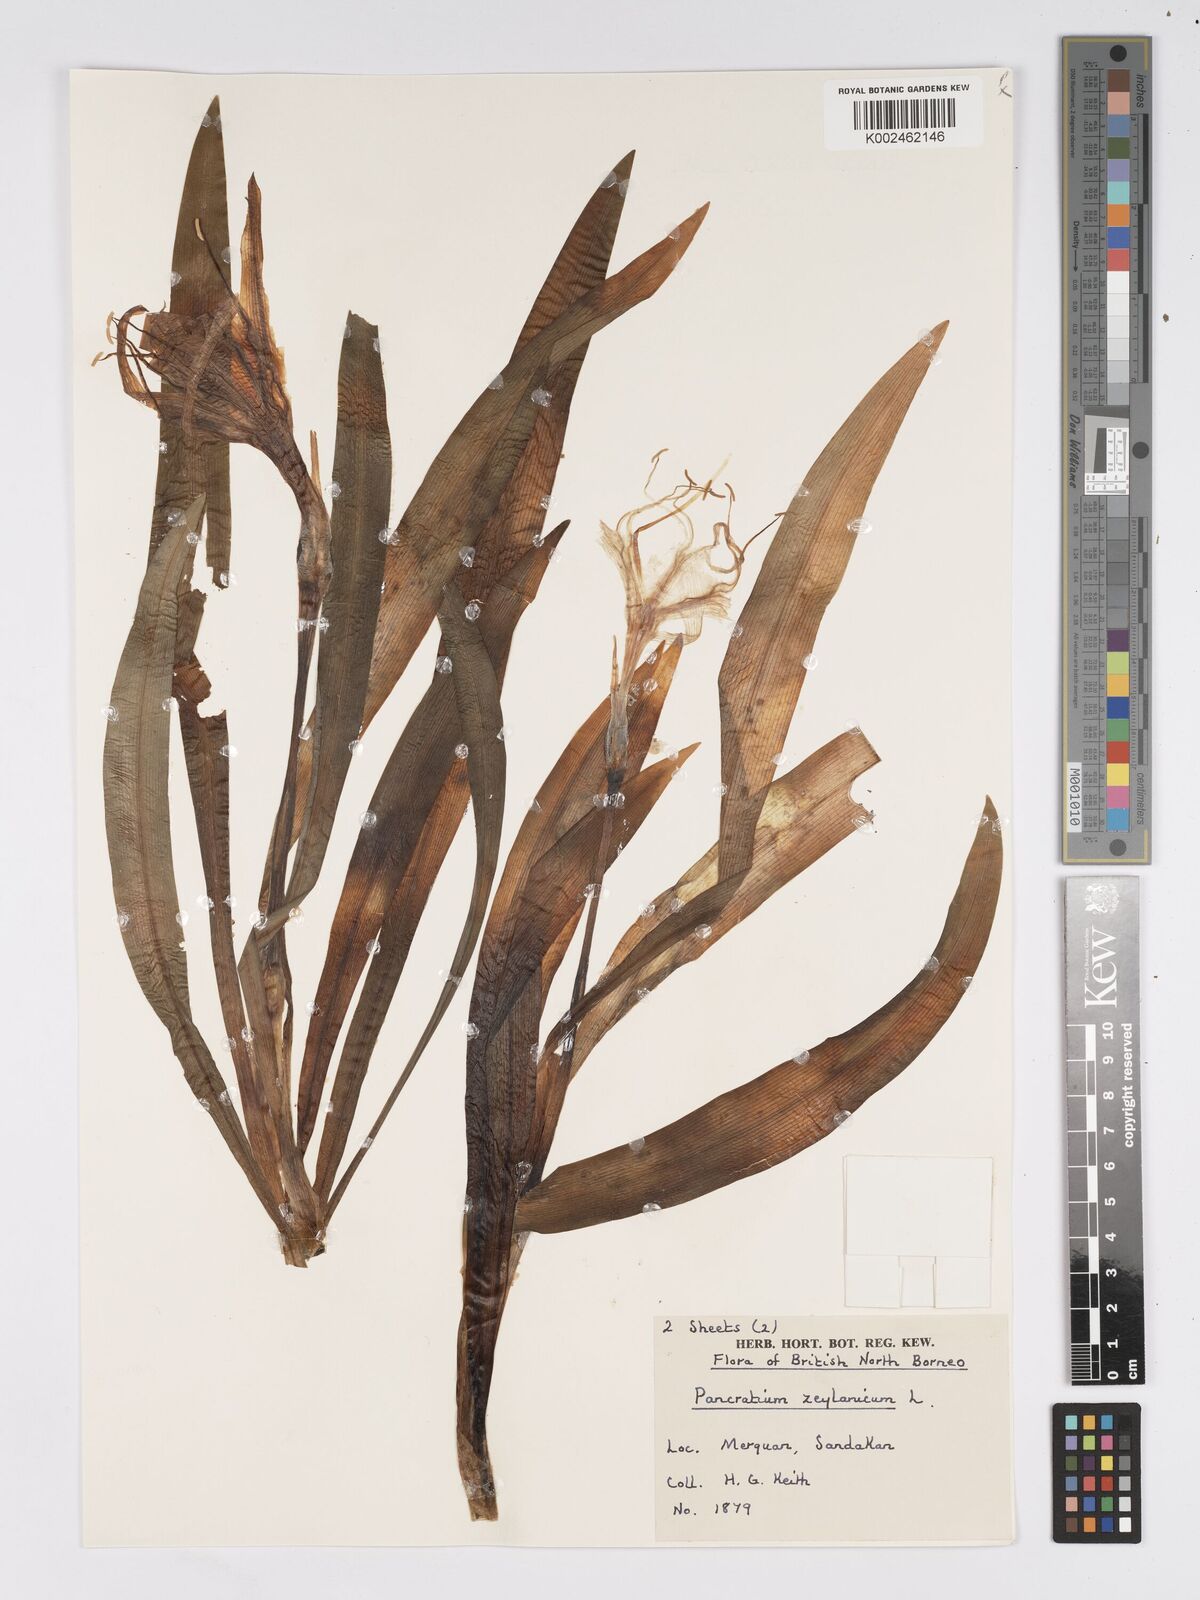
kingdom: Plantae
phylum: Tracheophyta
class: Liliopsida
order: Asparagales
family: Amaryllidaceae
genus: Pancratium
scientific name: Pancratium zeylanicum
